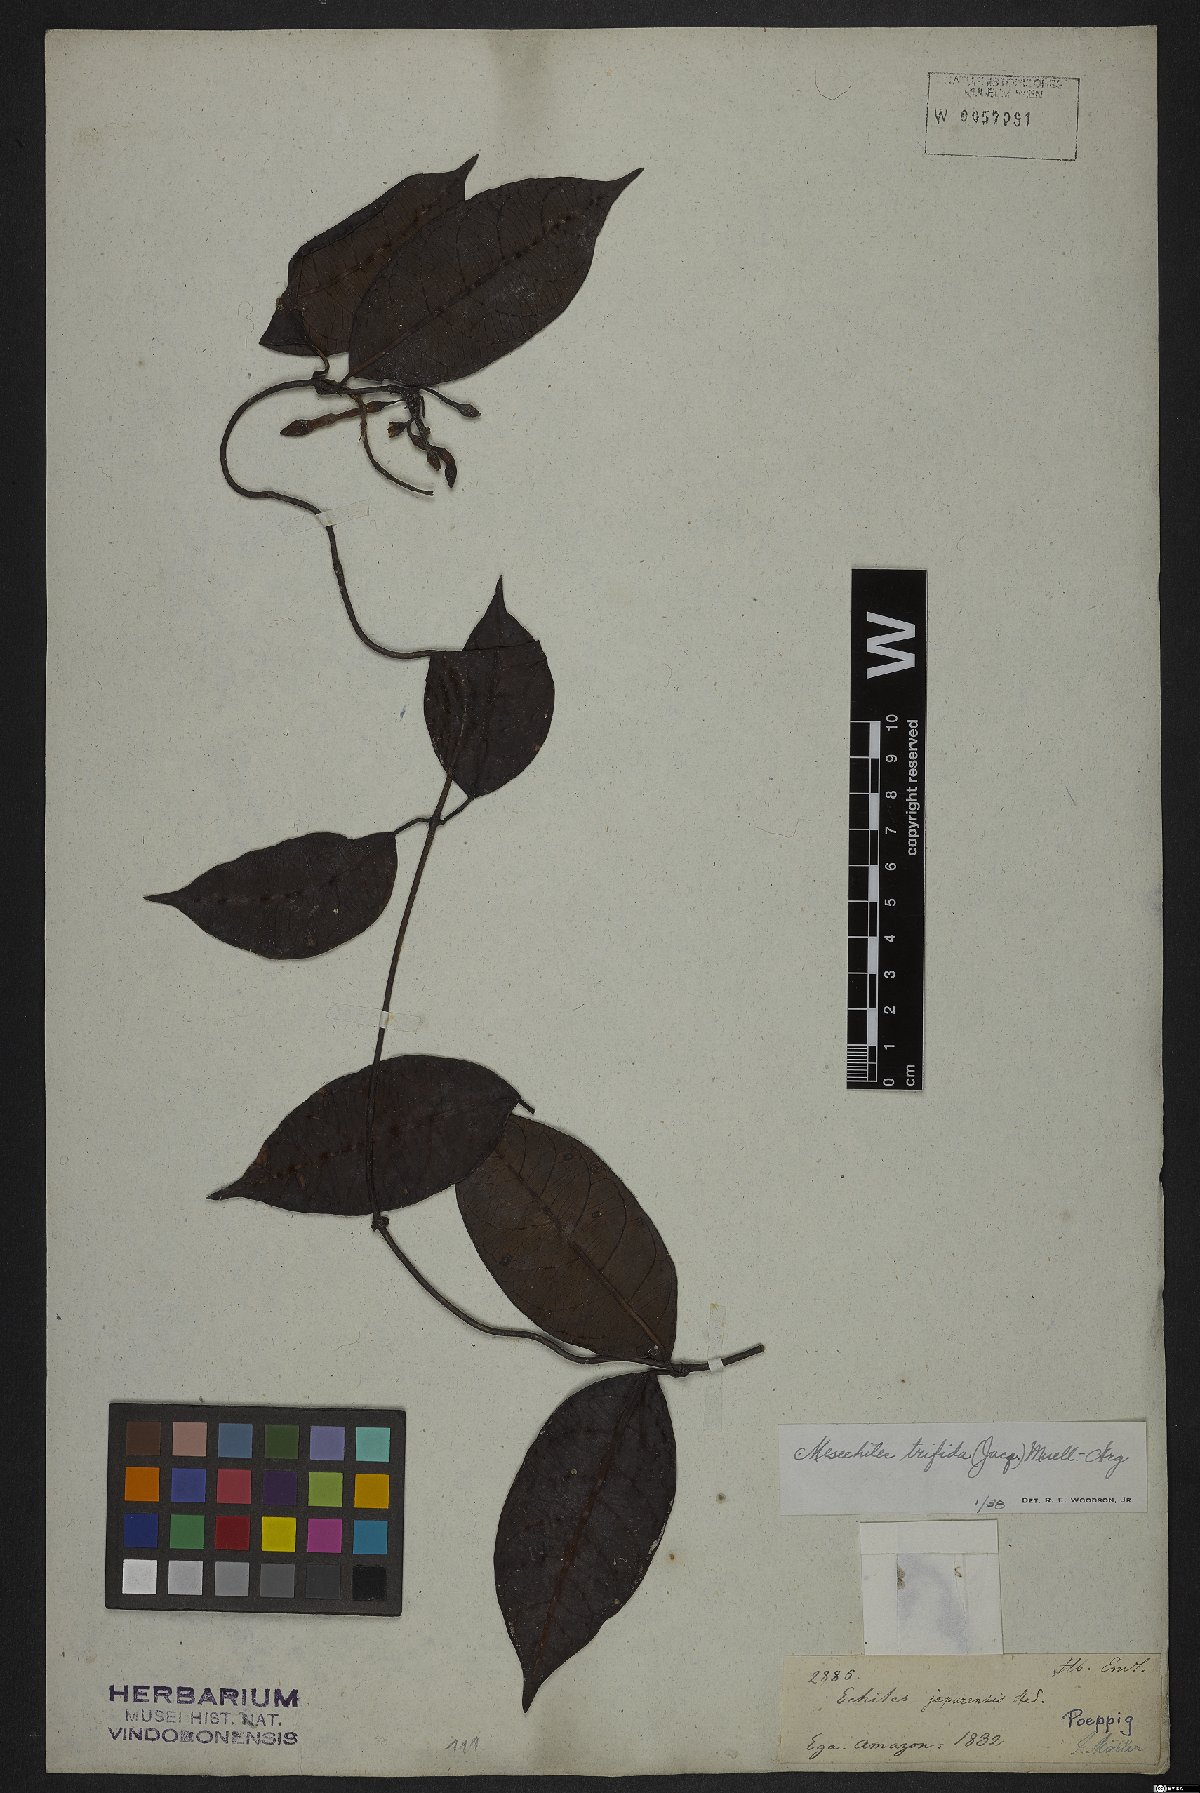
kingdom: Plantae
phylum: Tracheophyta
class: Magnoliopsida
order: Gentianales
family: Apocynaceae
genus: Mesechites
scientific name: Mesechites trifidus
